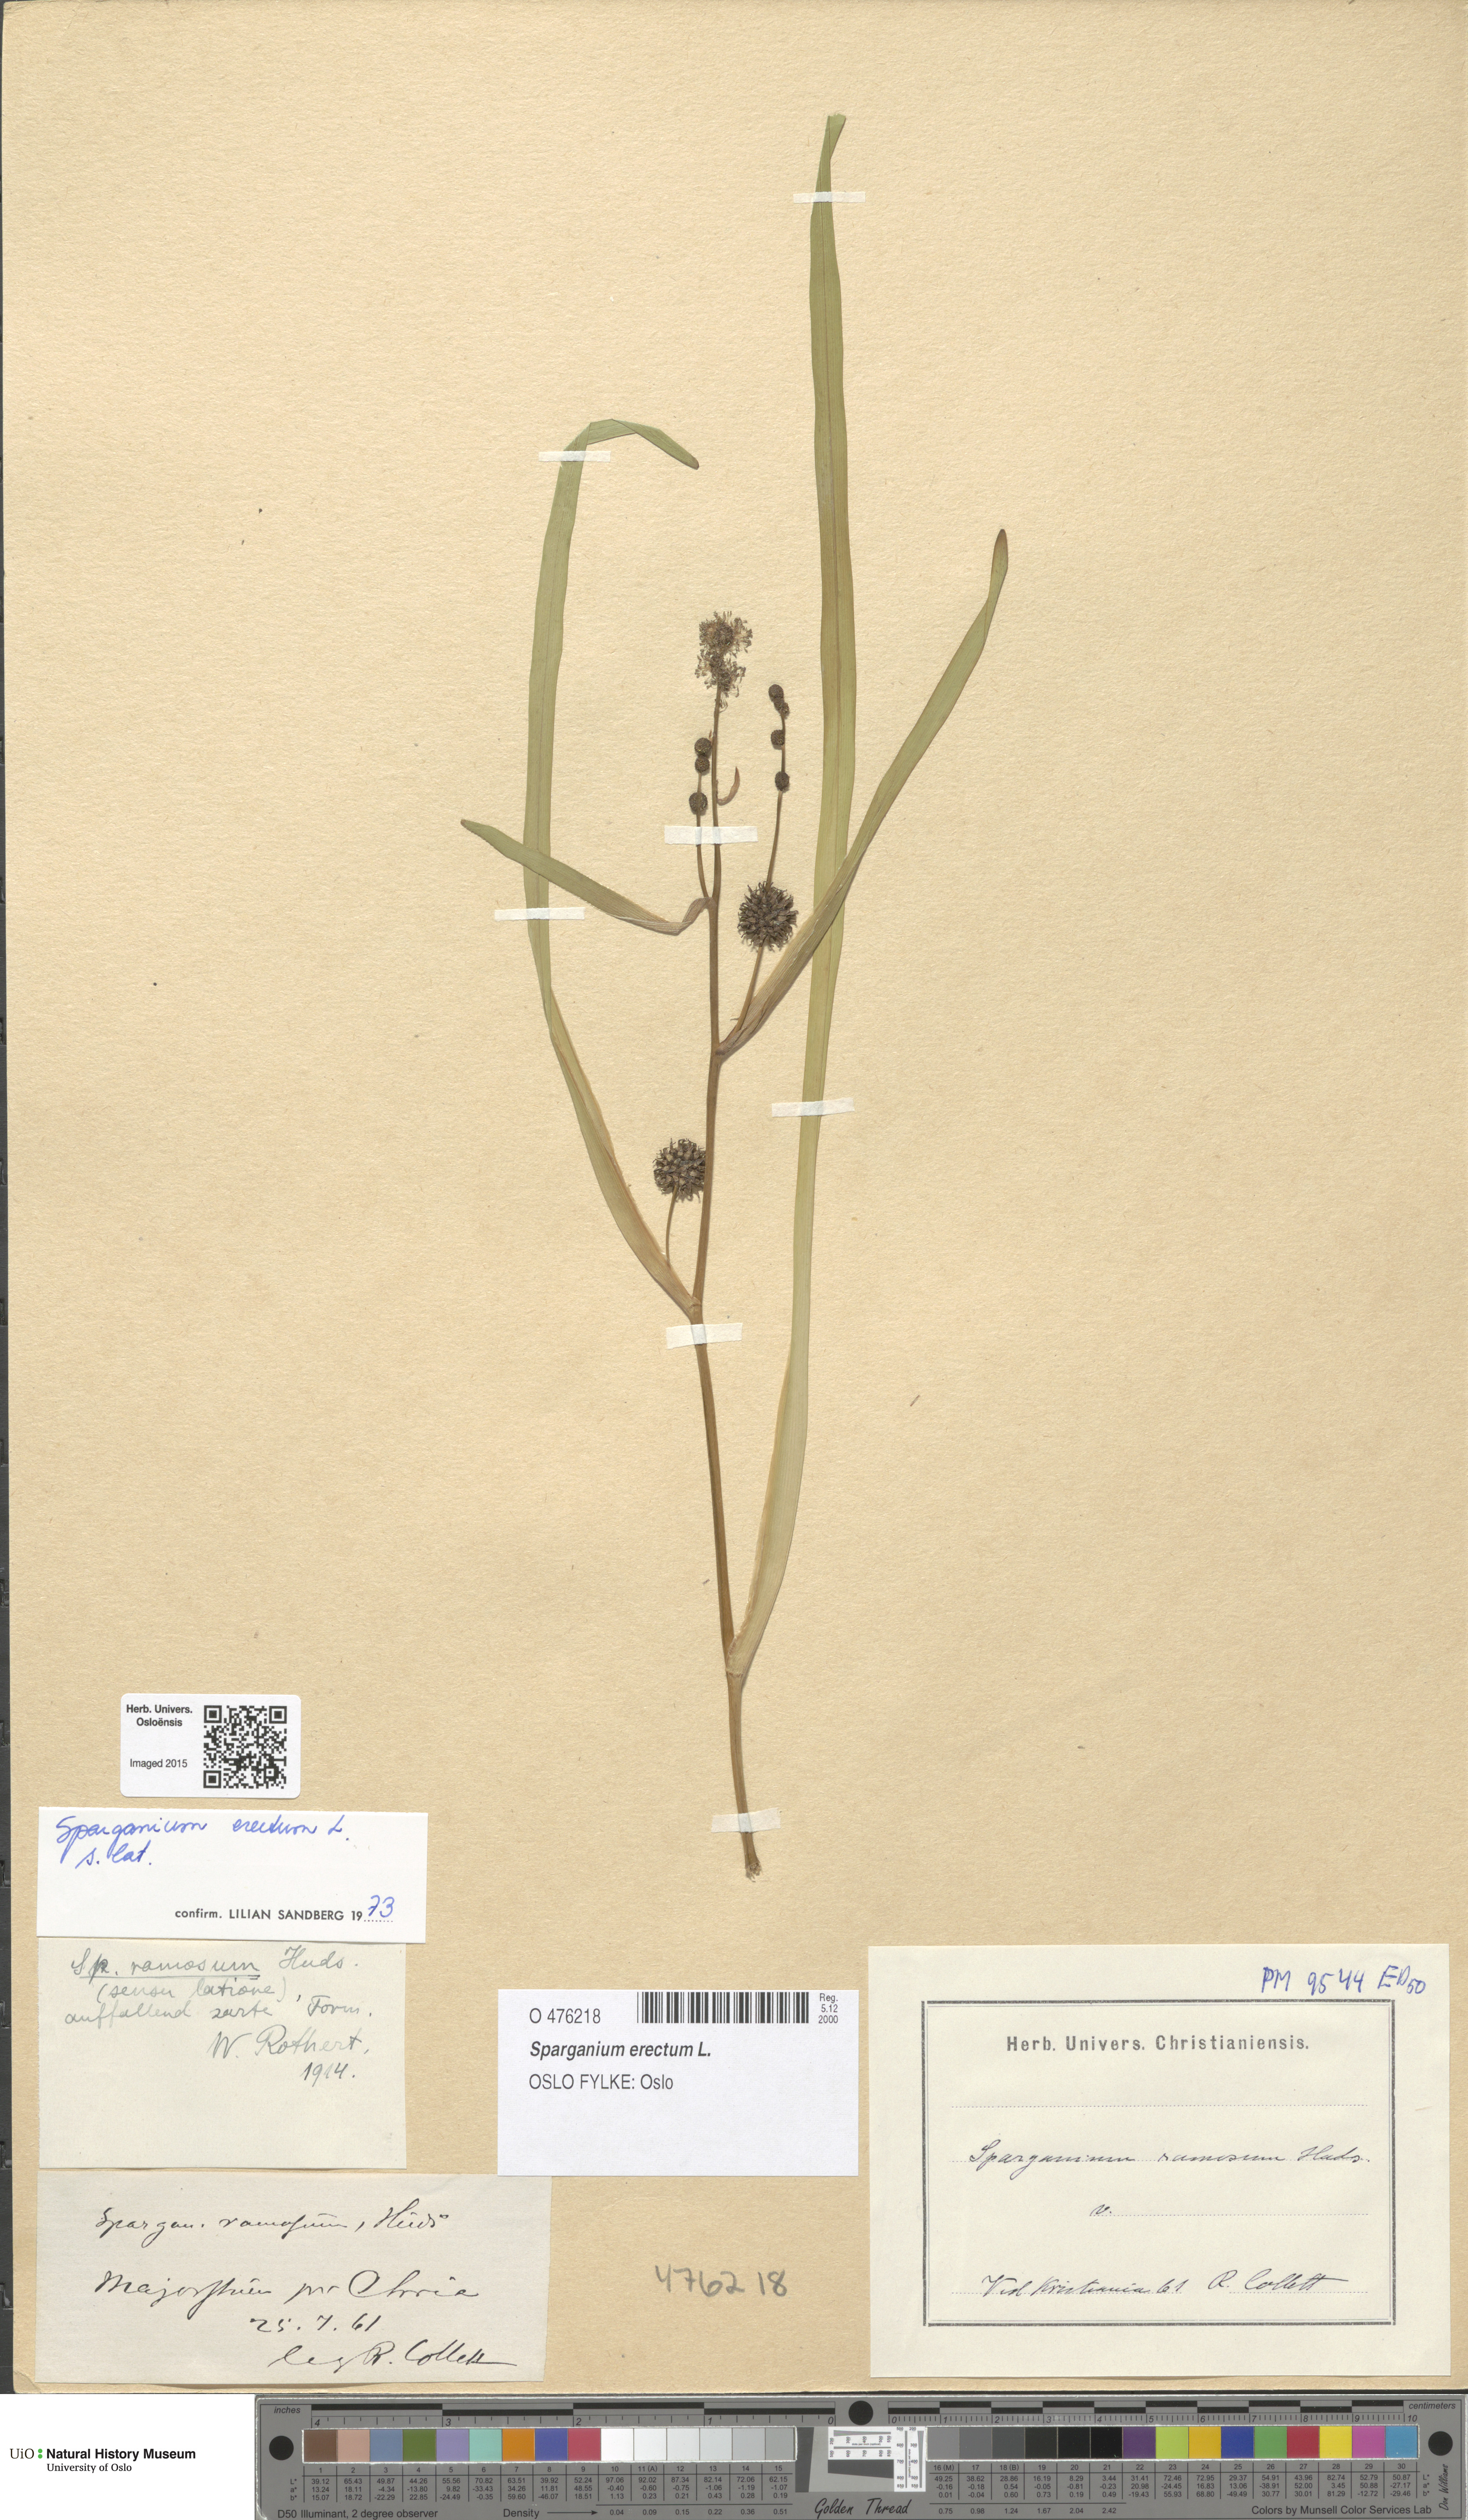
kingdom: Plantae
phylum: Tracheophyta
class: Liliopsida
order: Poales
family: Typhaceae
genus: Sparganium
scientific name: Sparganium erectum
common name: Branched bur-reed
